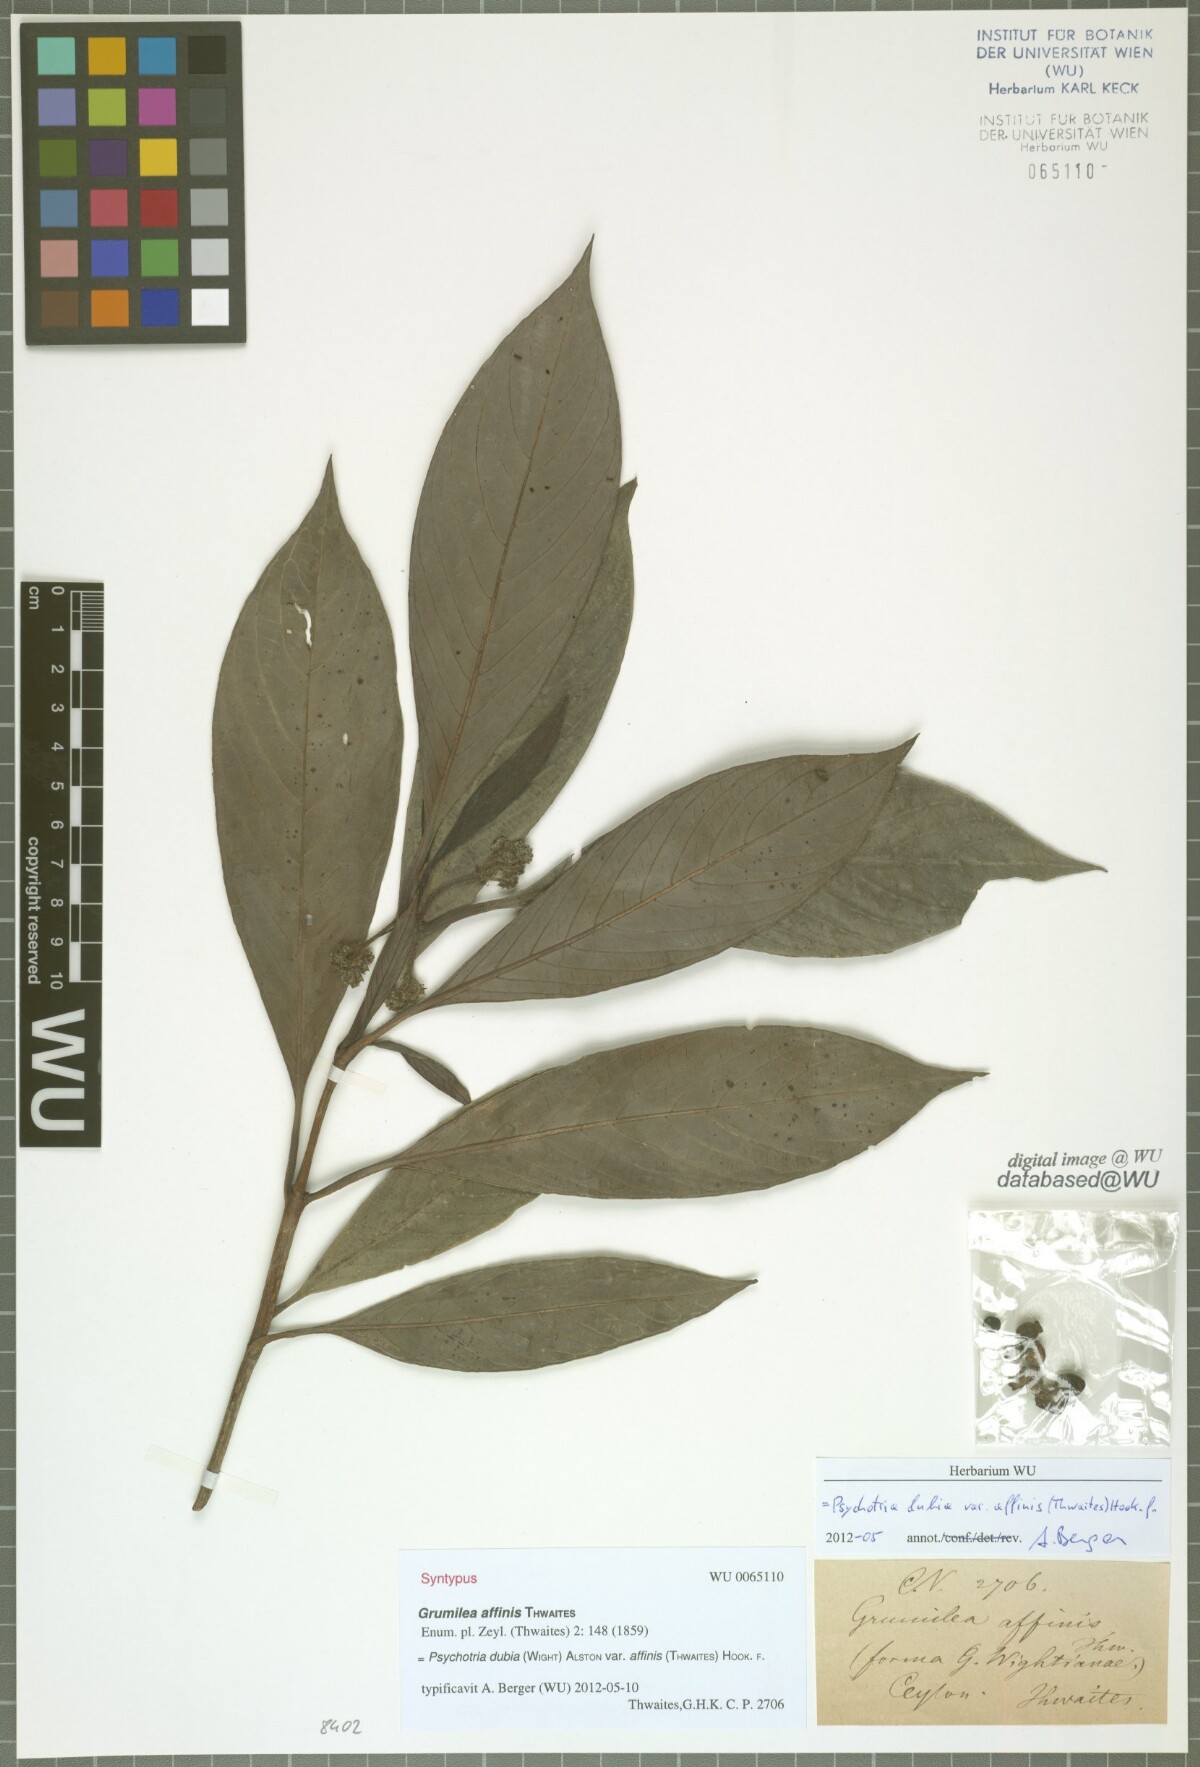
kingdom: Plantae
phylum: Tracheophyta
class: Magnoliopsida
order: Gentianales
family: Rubiaceae
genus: Psychotria
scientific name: Psychotria dubia
